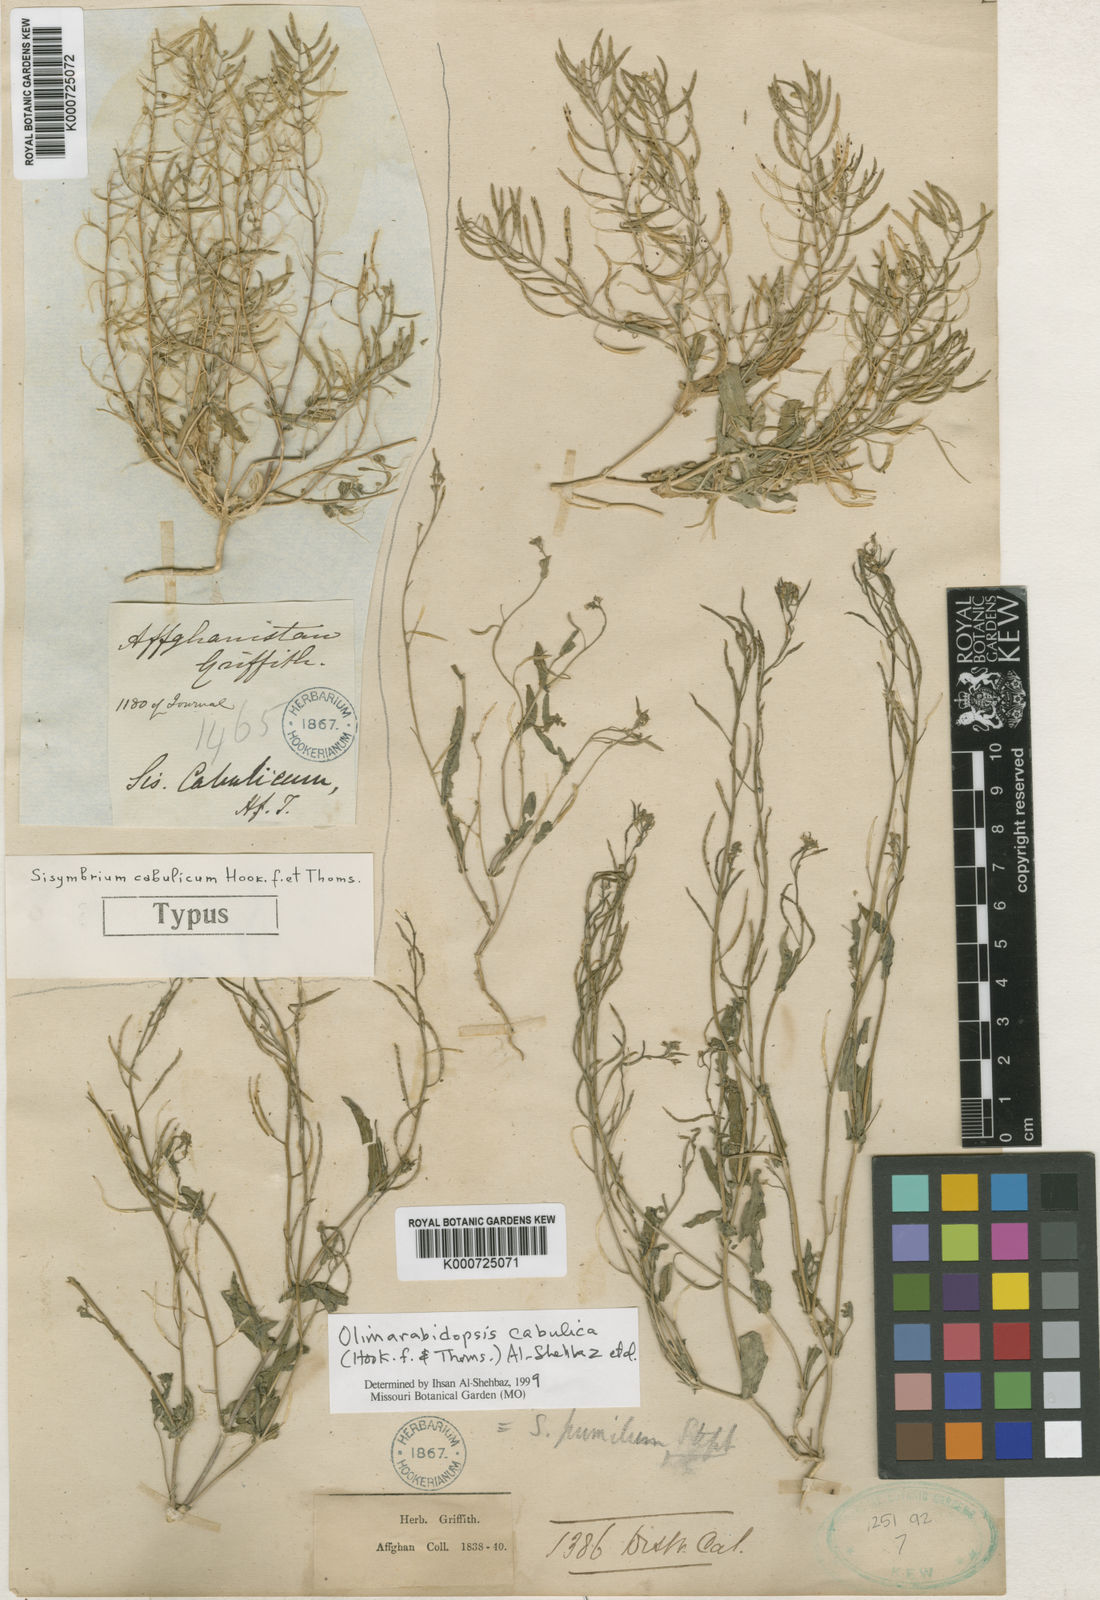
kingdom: Plantae
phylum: Tracheophyta
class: Magnoliopsida
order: Brassicales
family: Brassicaceae
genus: Olimarabidopsis
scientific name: Olimarabidopsis
